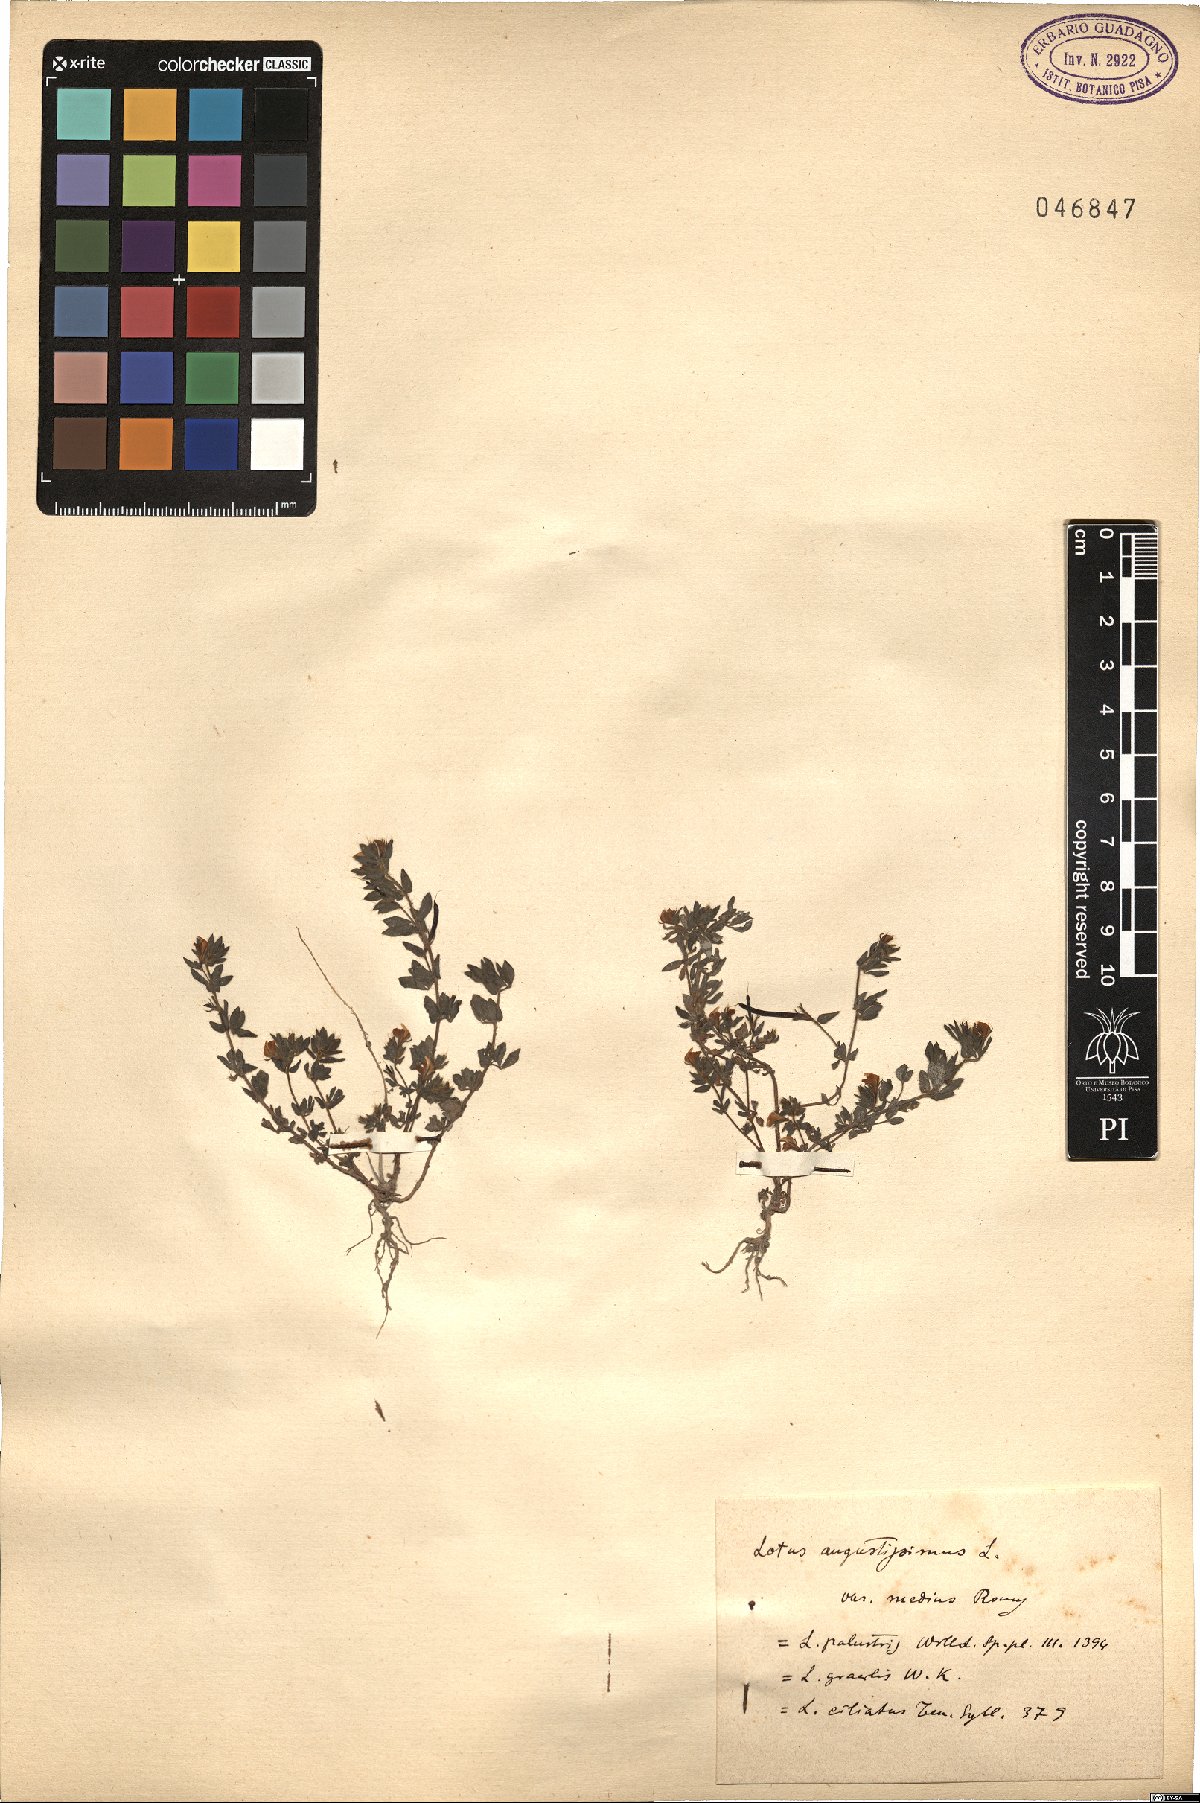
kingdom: Plantae
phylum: Tracheophyta
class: Magnoliopsida
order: Fabales
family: Fabaceae
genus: Lotus
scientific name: Lotus angustissimus
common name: Slender bird's-foot trefoil
